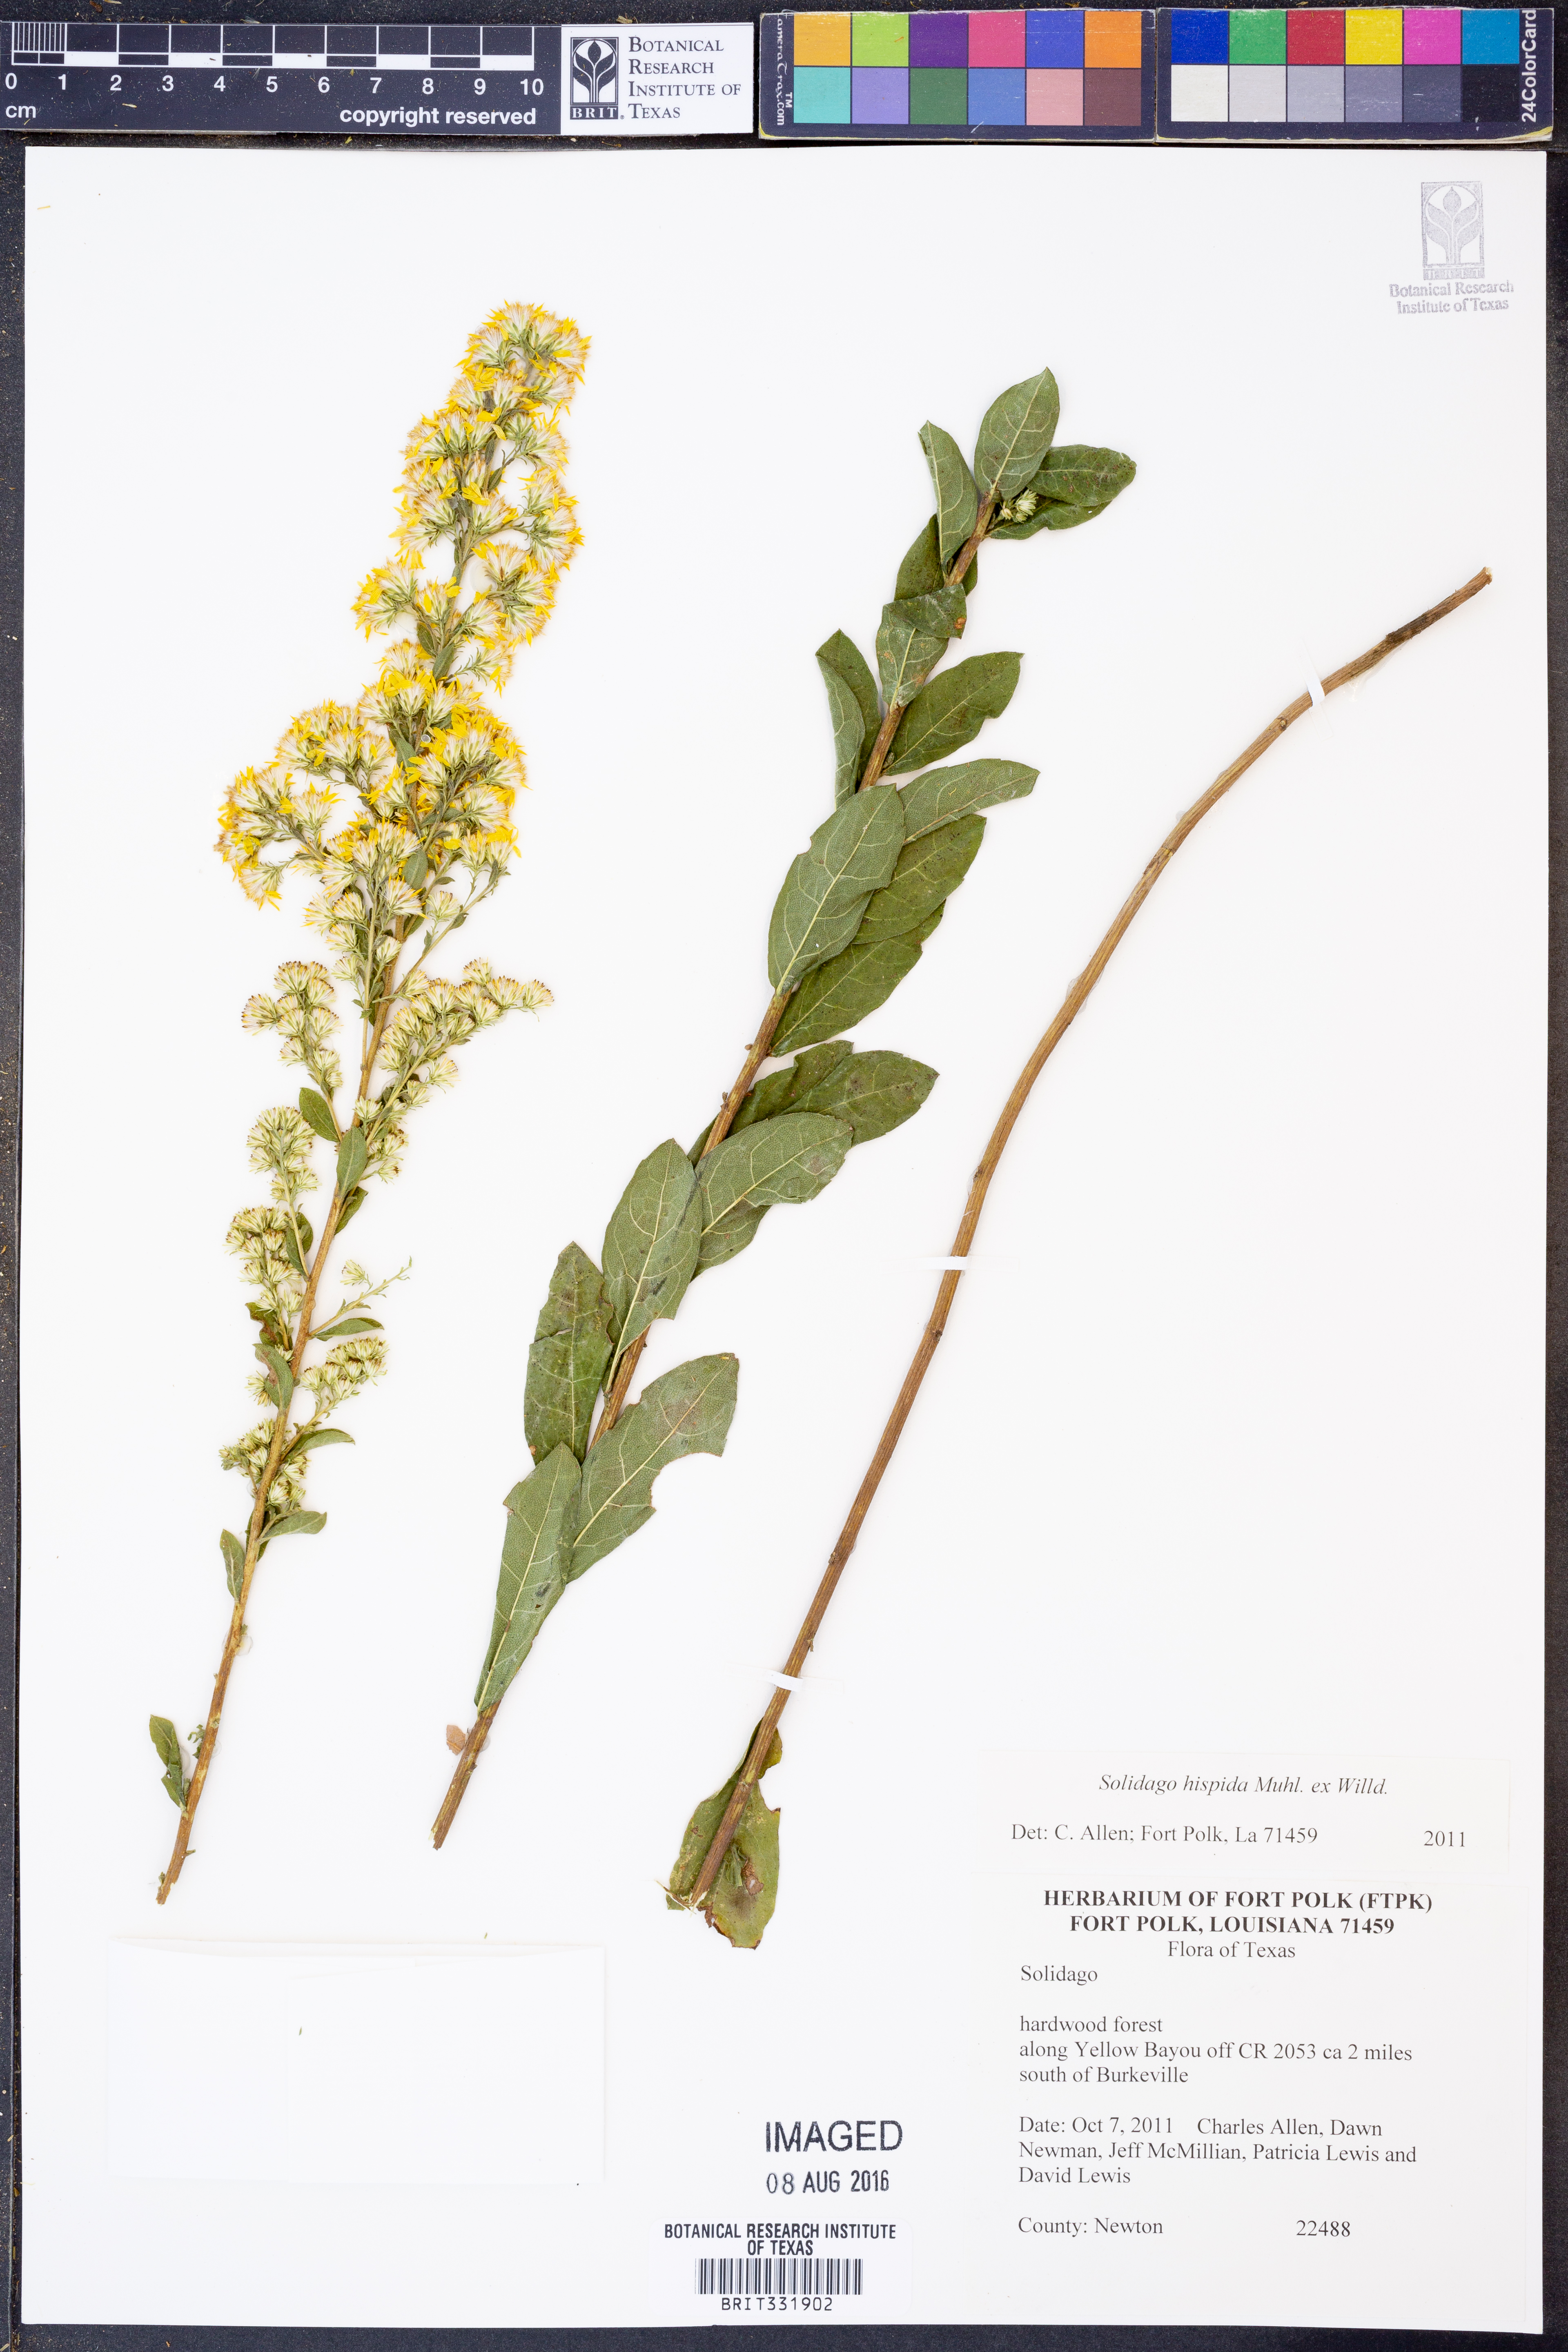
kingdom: Plantae
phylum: Tracheophyta
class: Magnoliopsida
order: Asterales
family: Asteraceae
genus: Solidago
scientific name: Solidago hispida
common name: Hairy goldenrod
